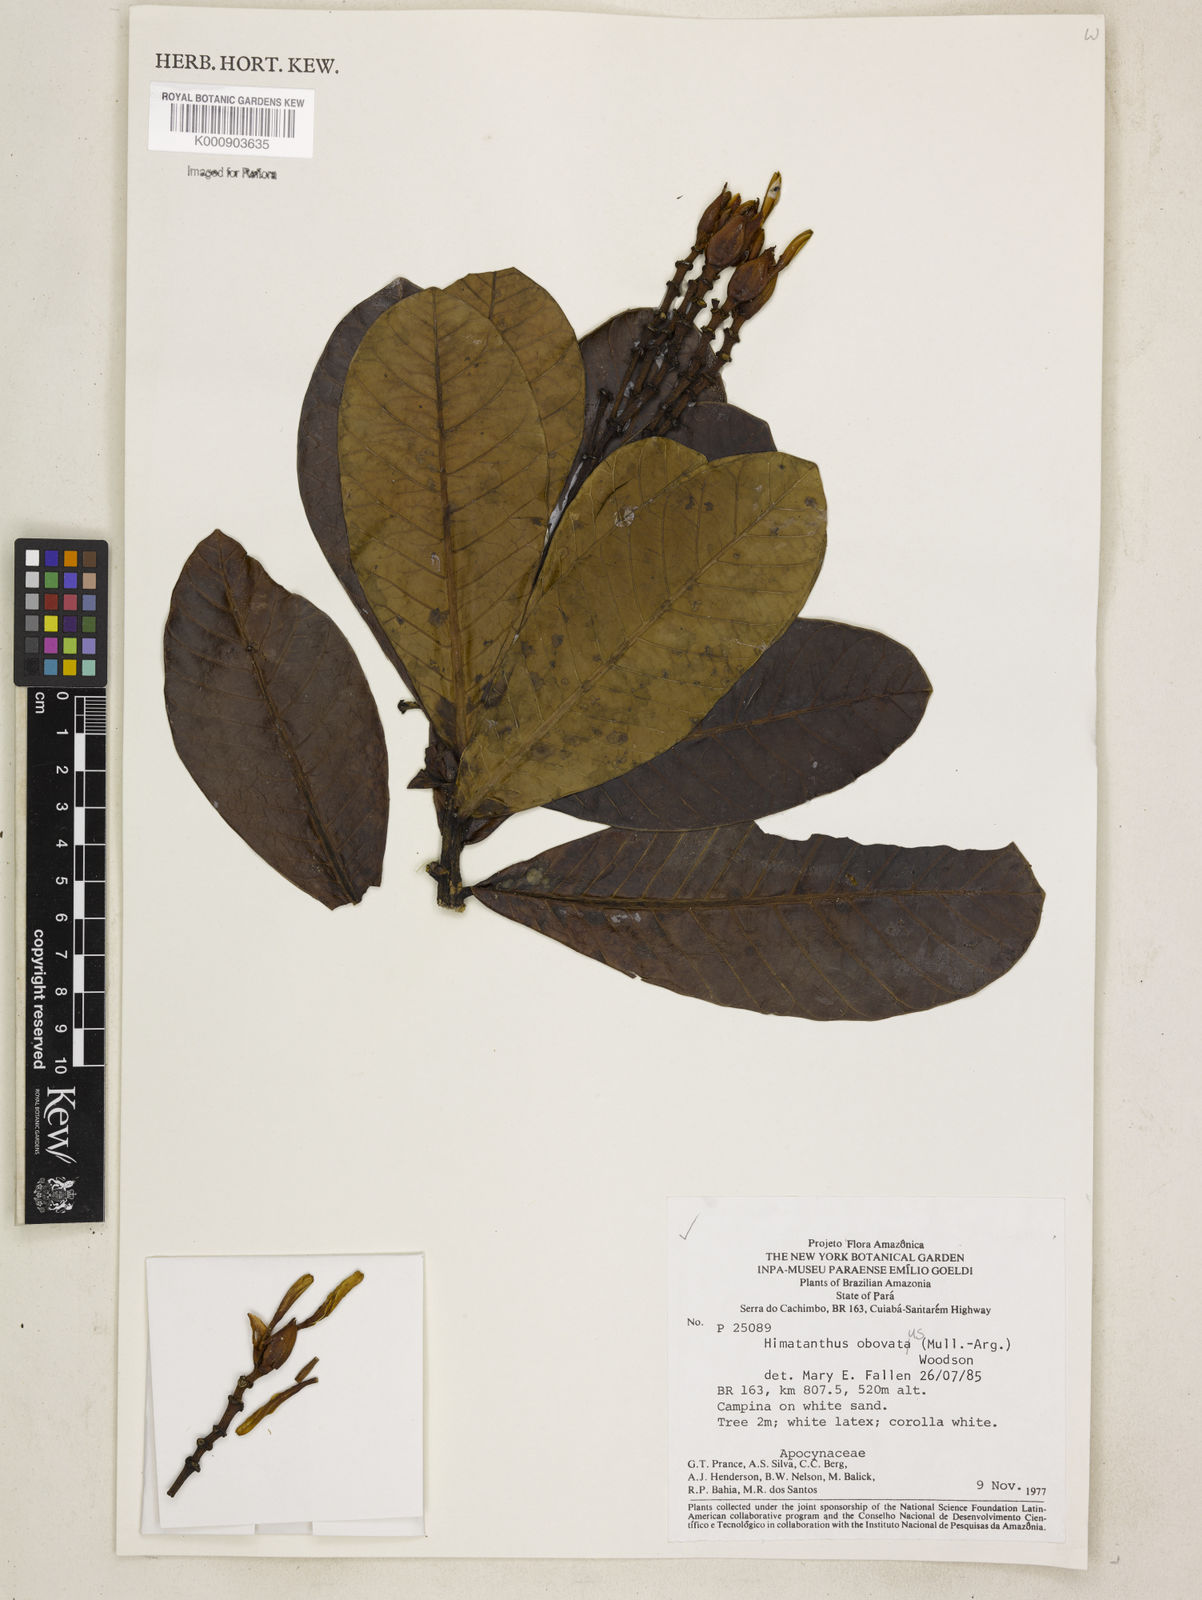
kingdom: Plantae
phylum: Tracheophyta
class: Magnoliopsida
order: Gentianales
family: Apocynaceae
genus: Himatanthus
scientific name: Himatanthus
